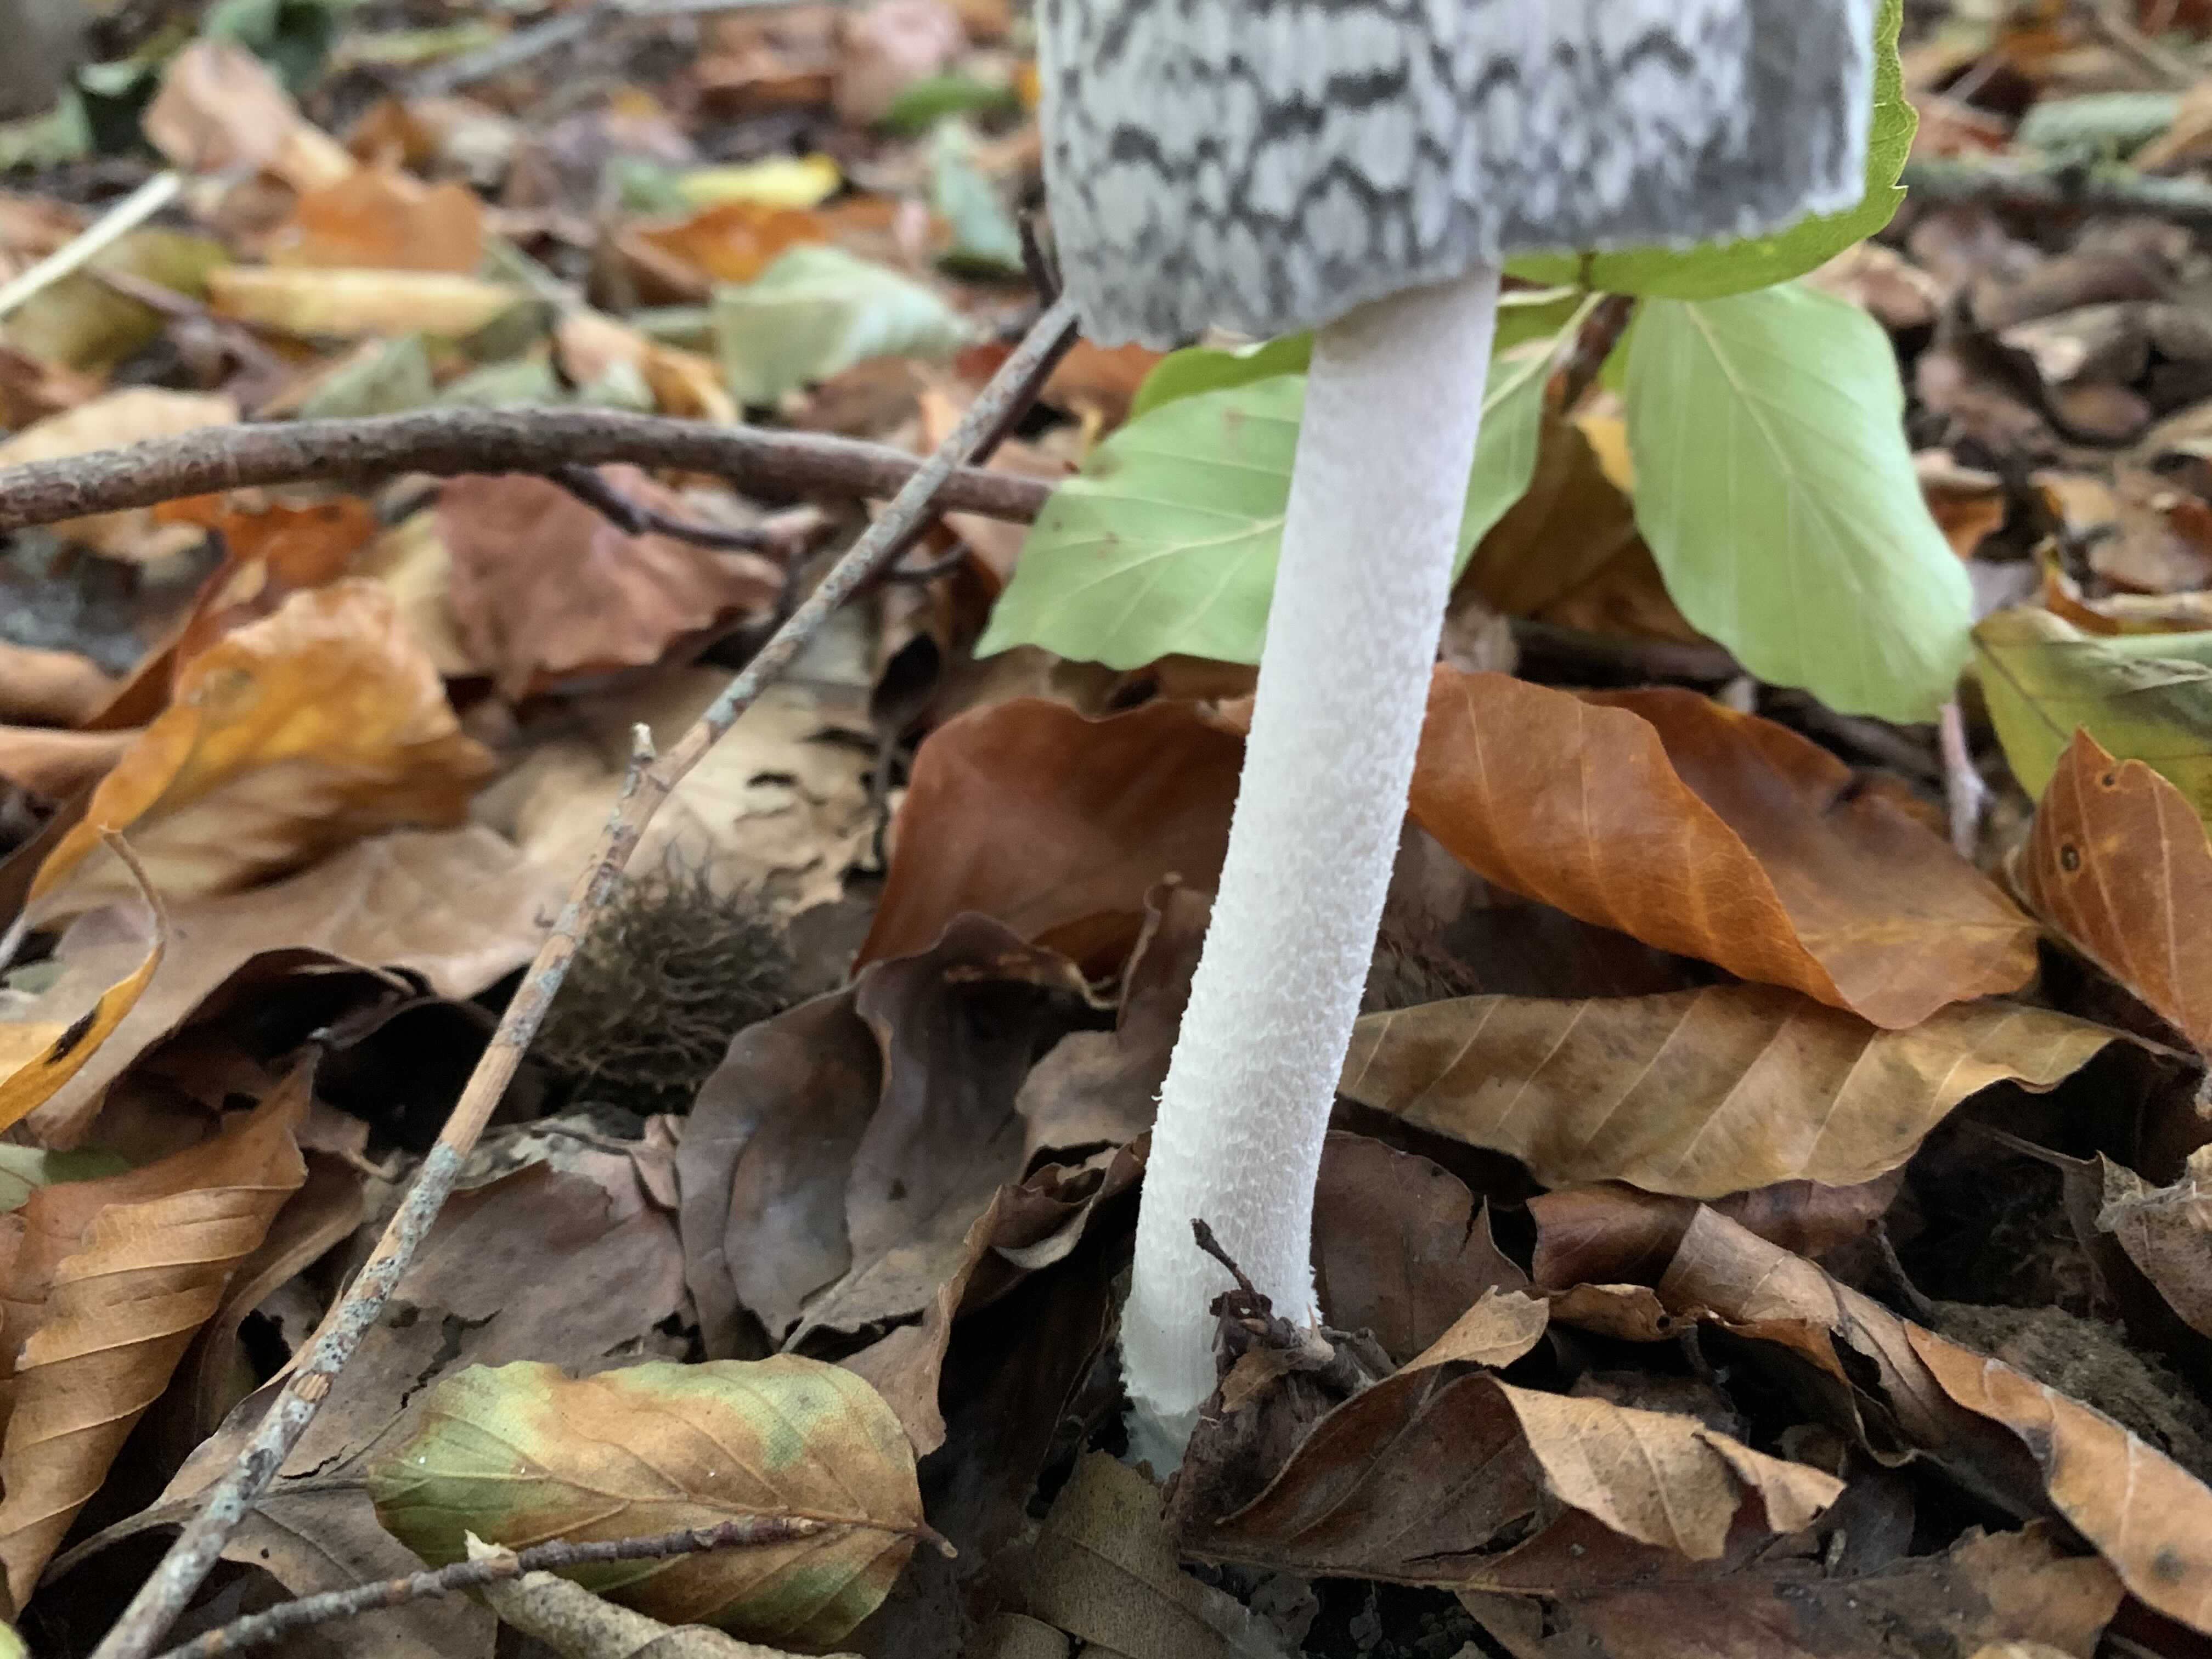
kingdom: Fungi
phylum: Basidiomycota
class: Agaricomycetes
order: Agaricales
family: Psathyrellaceae
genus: Coprinopsis
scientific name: Coprinopsis picacea
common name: skade-blækhat
